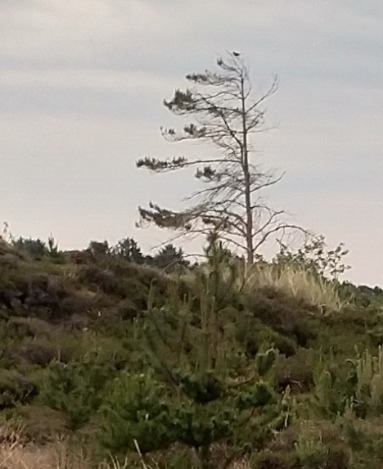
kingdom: Animalia
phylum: Chordata
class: Aves
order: Cuculiformes
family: Cuculidae
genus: Cuculus
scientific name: Cuculus canorus
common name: Gøg
